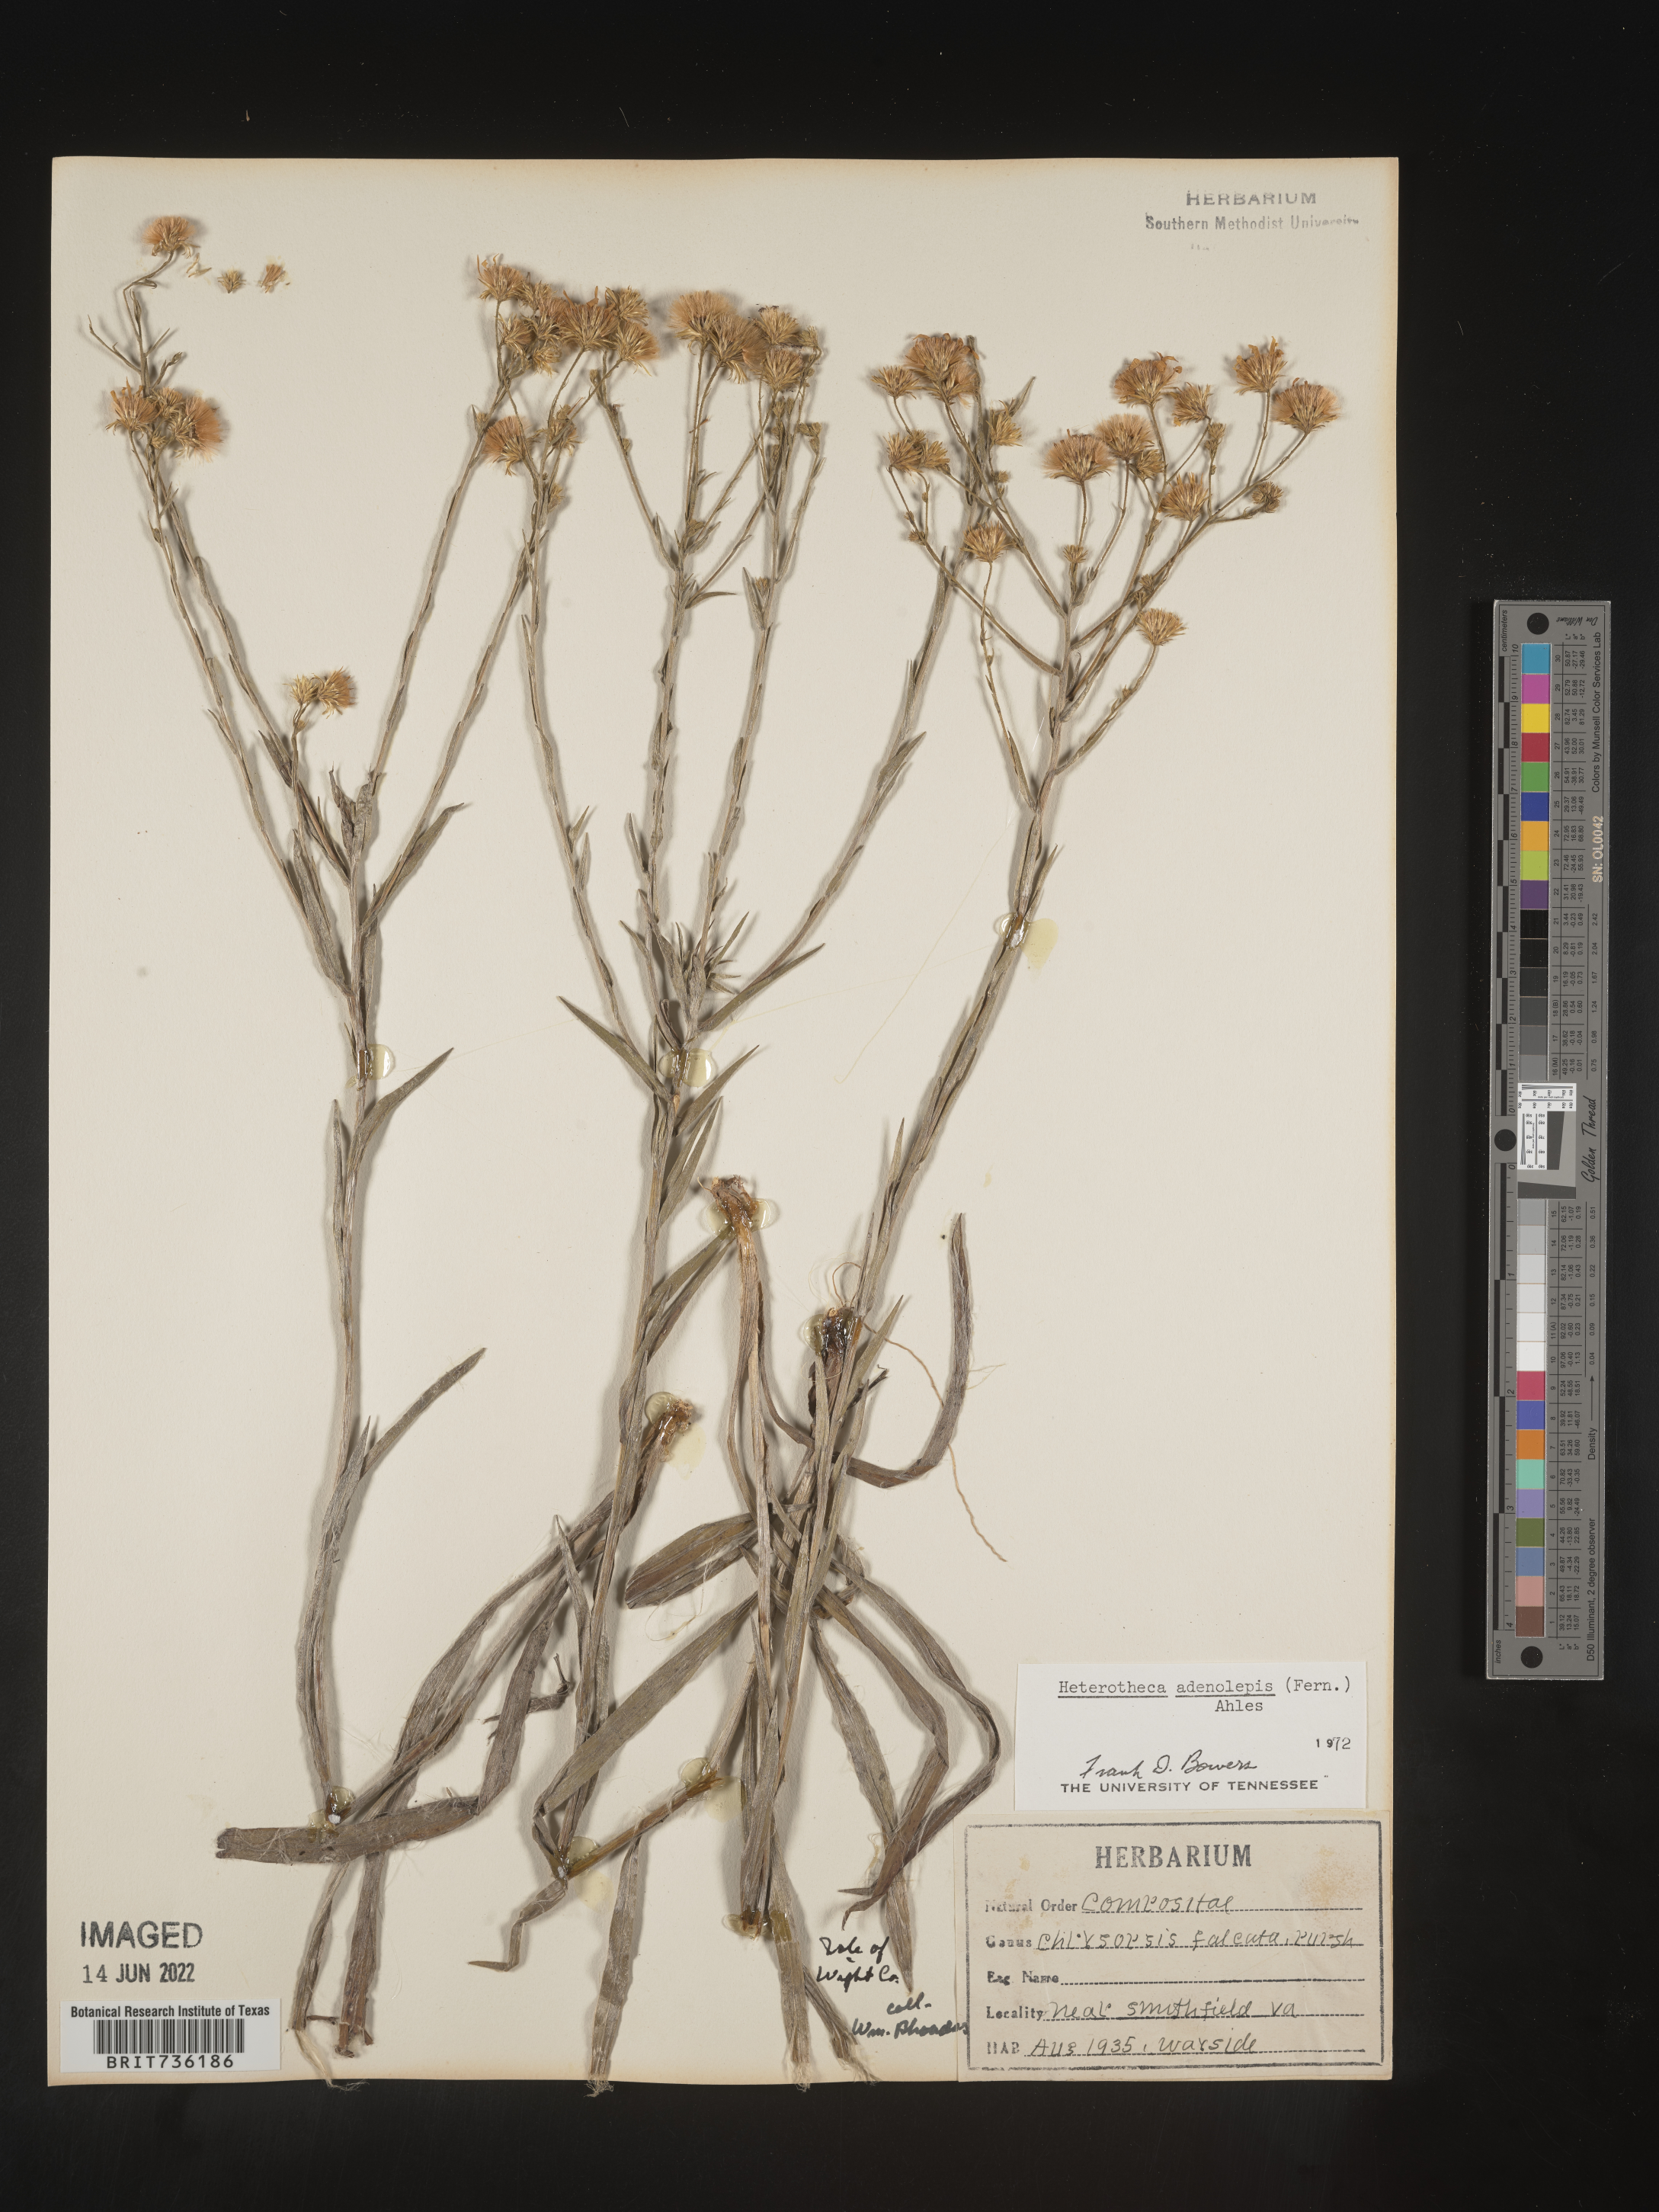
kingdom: Plantae
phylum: Tracheophyta
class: Magnoliopsida
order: Asterales
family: Asteraceae
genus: Pityopsis
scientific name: Pityopsis aspera
